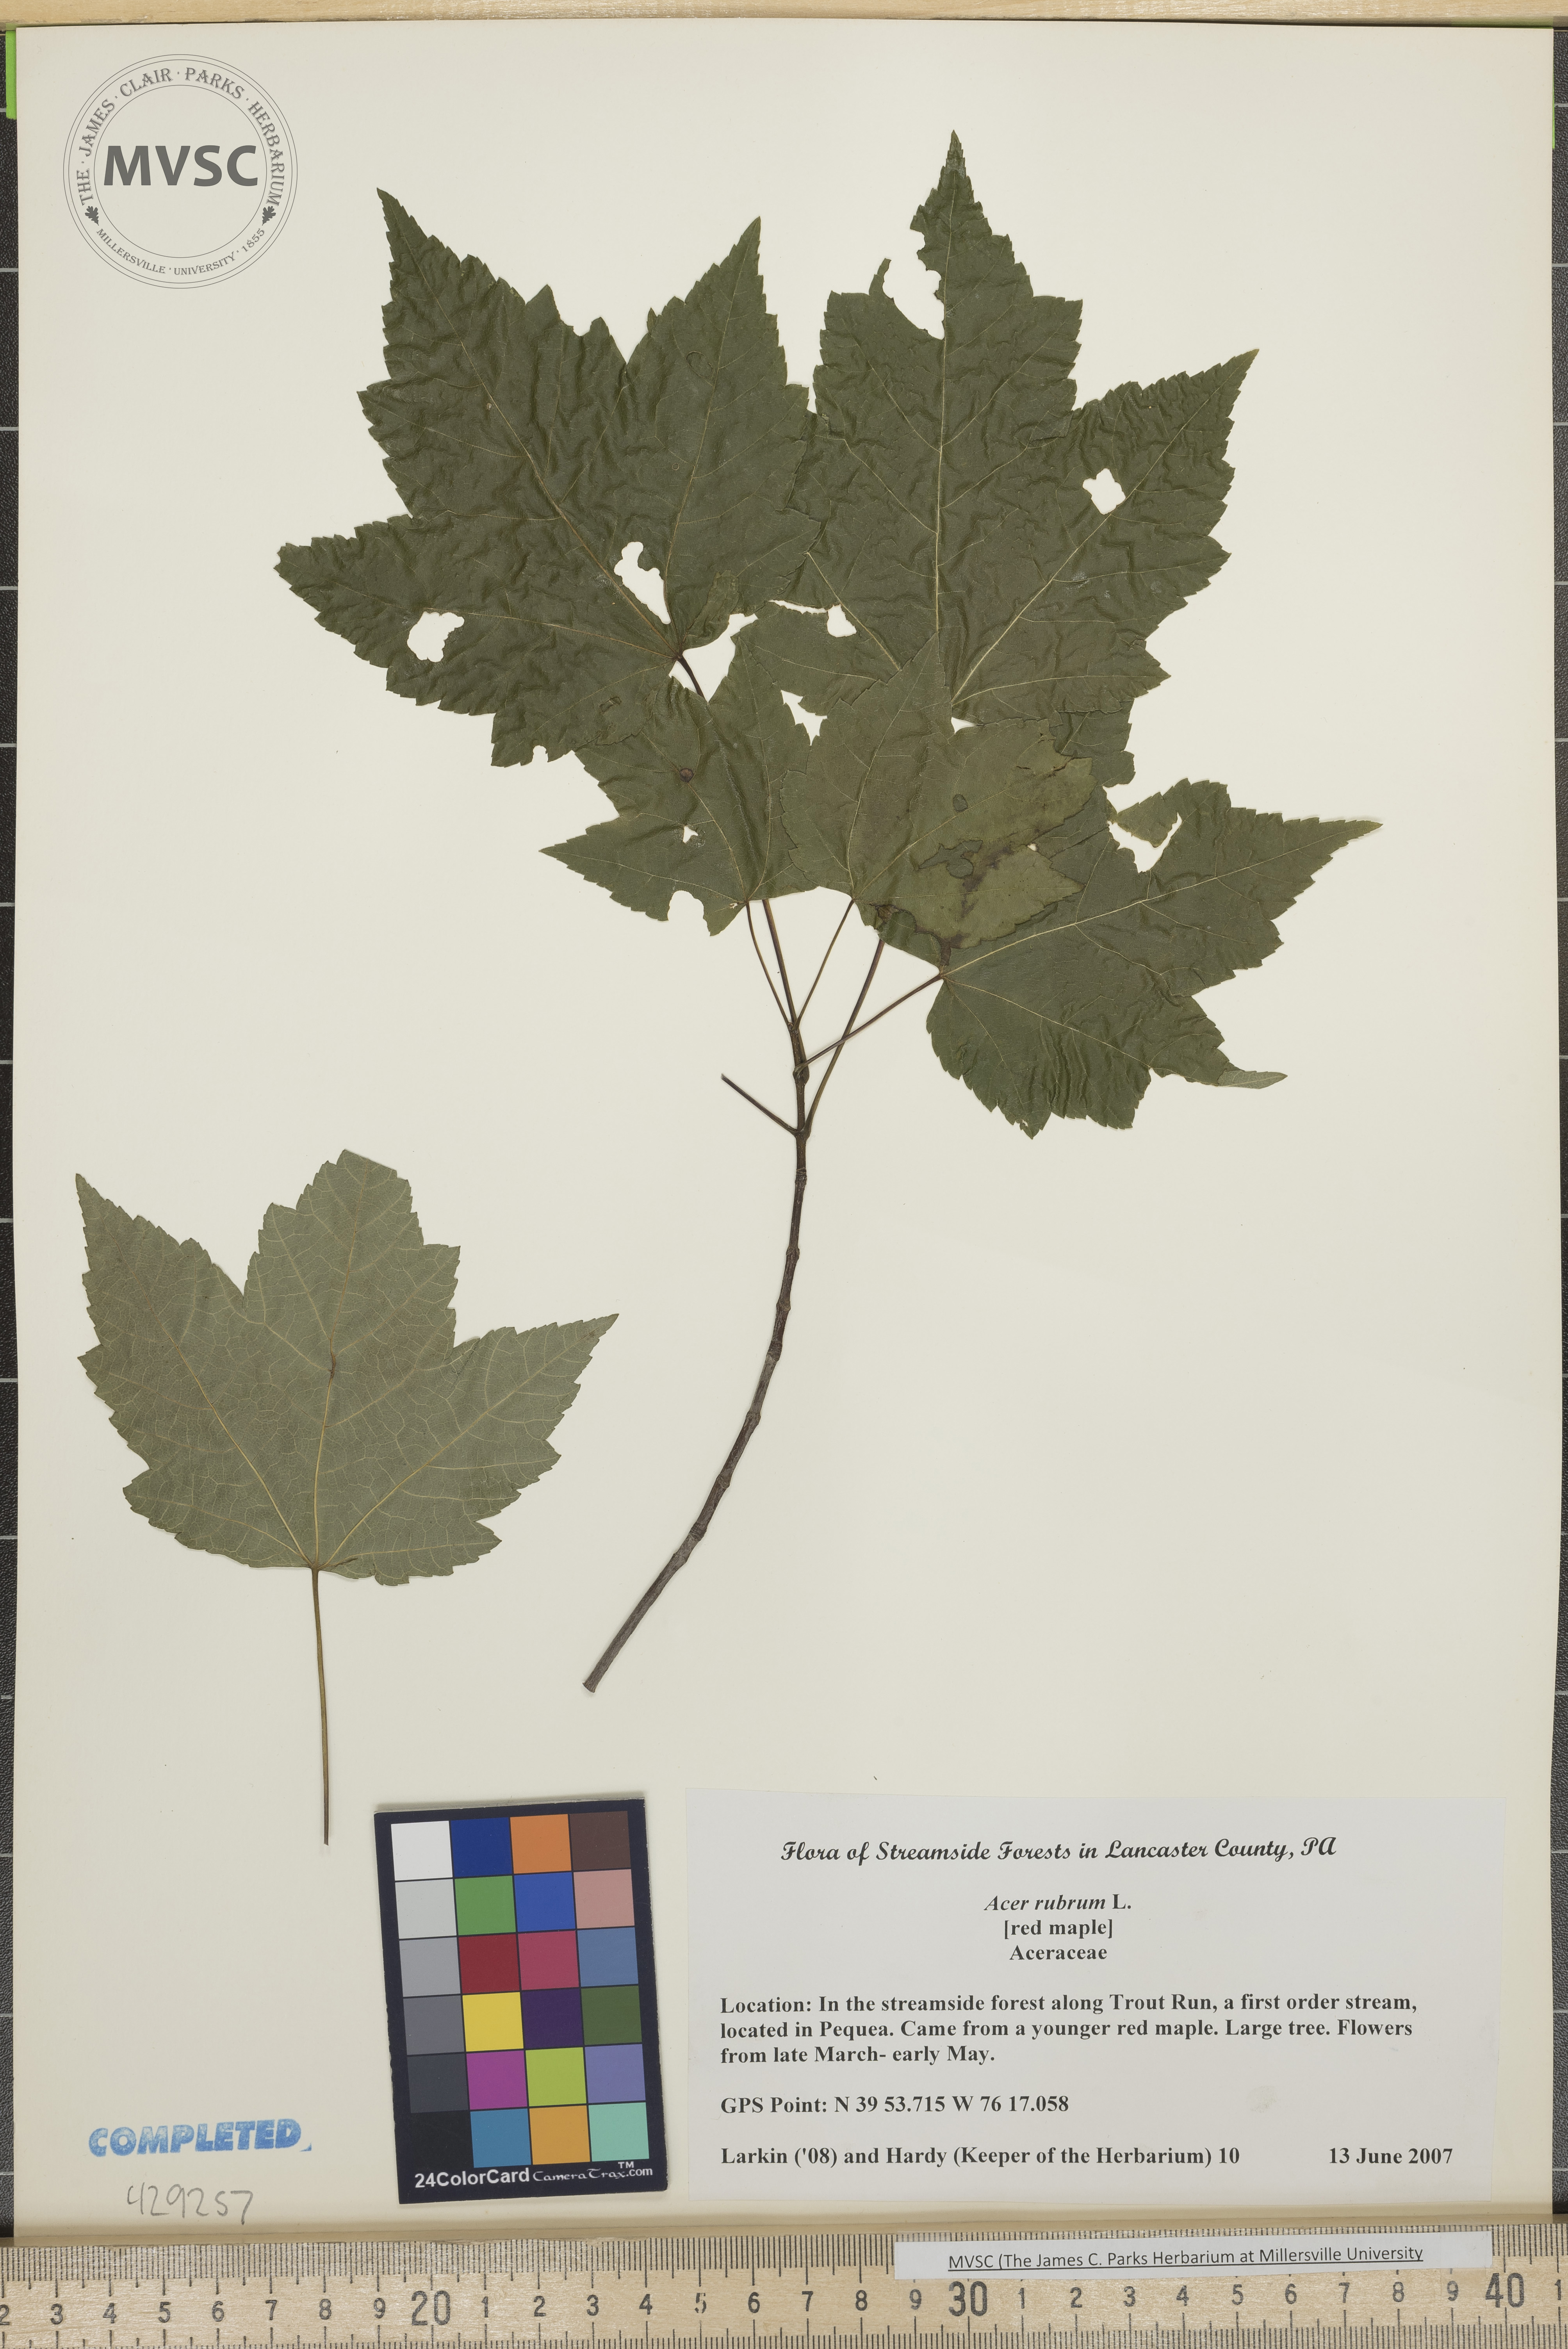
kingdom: Plantae
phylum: Tracheophyta
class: Magnoliopsida
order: Sapindales
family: Sapindaceae
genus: Acer
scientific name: Acer rubrum
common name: Red maple
